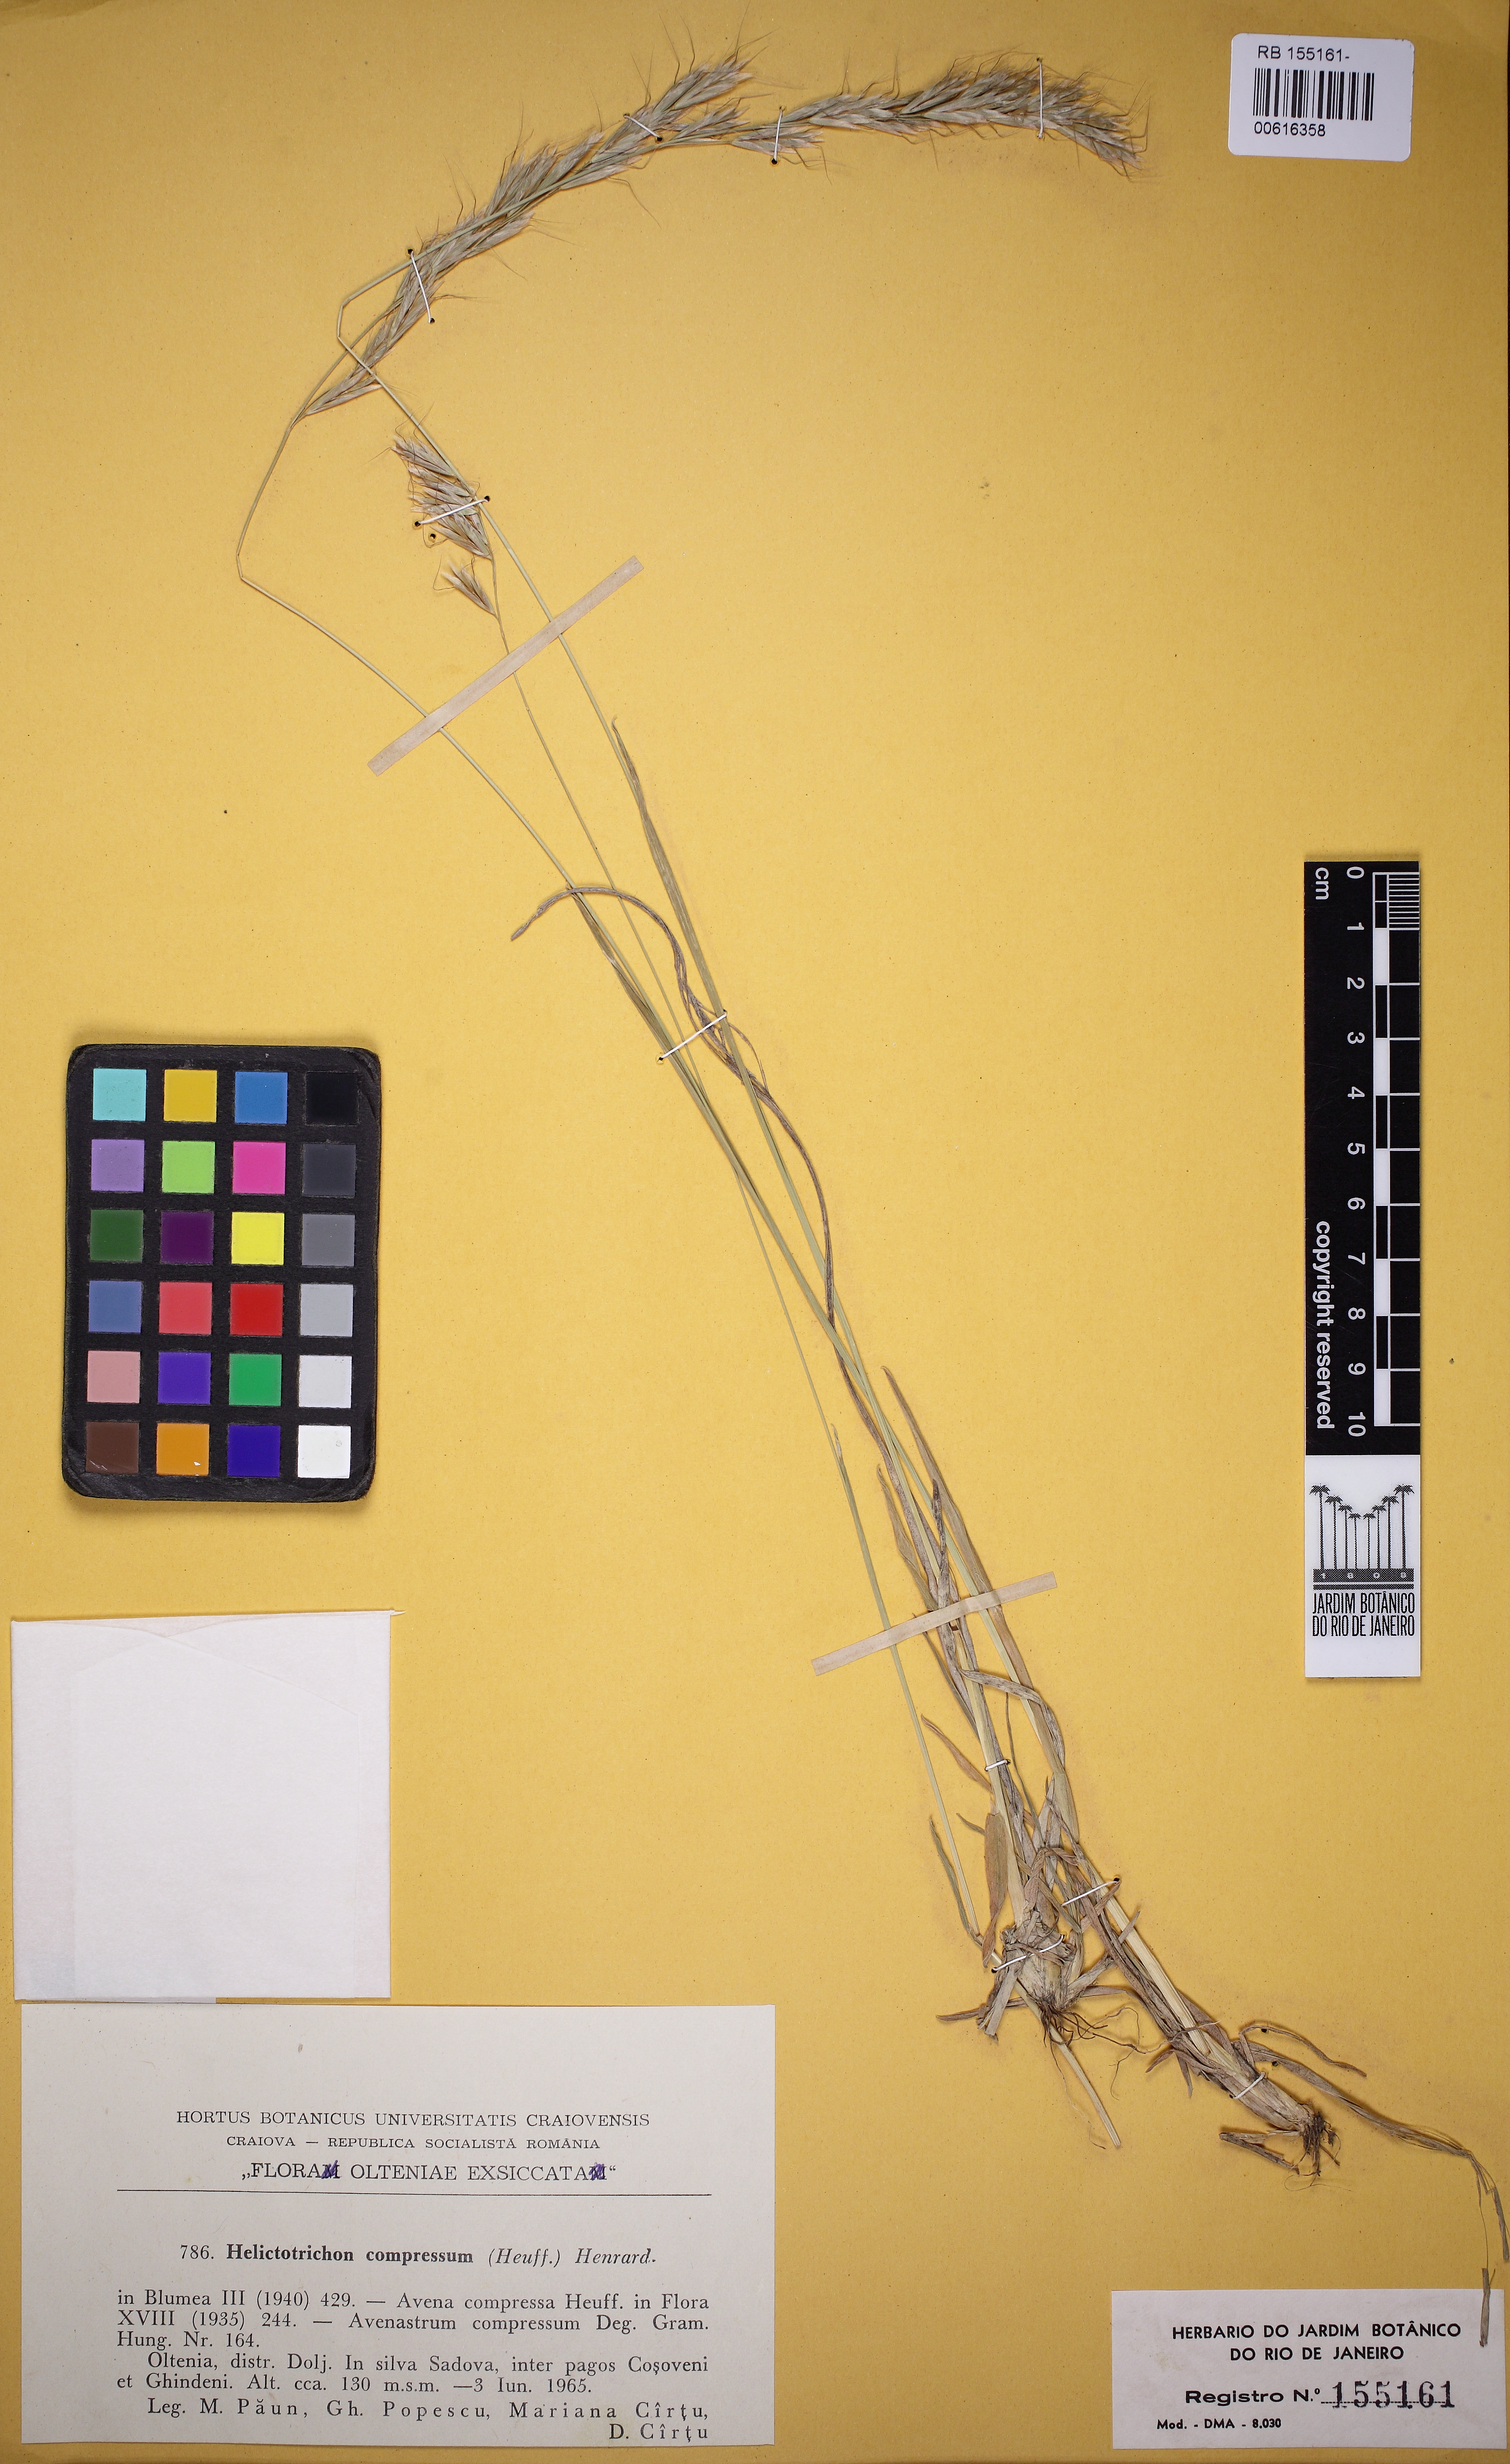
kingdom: Plantae
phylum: Tracheophyta
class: Liliopsida
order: Poales
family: Poaceae
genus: Helictochloa
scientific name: Helictochloa compressa
